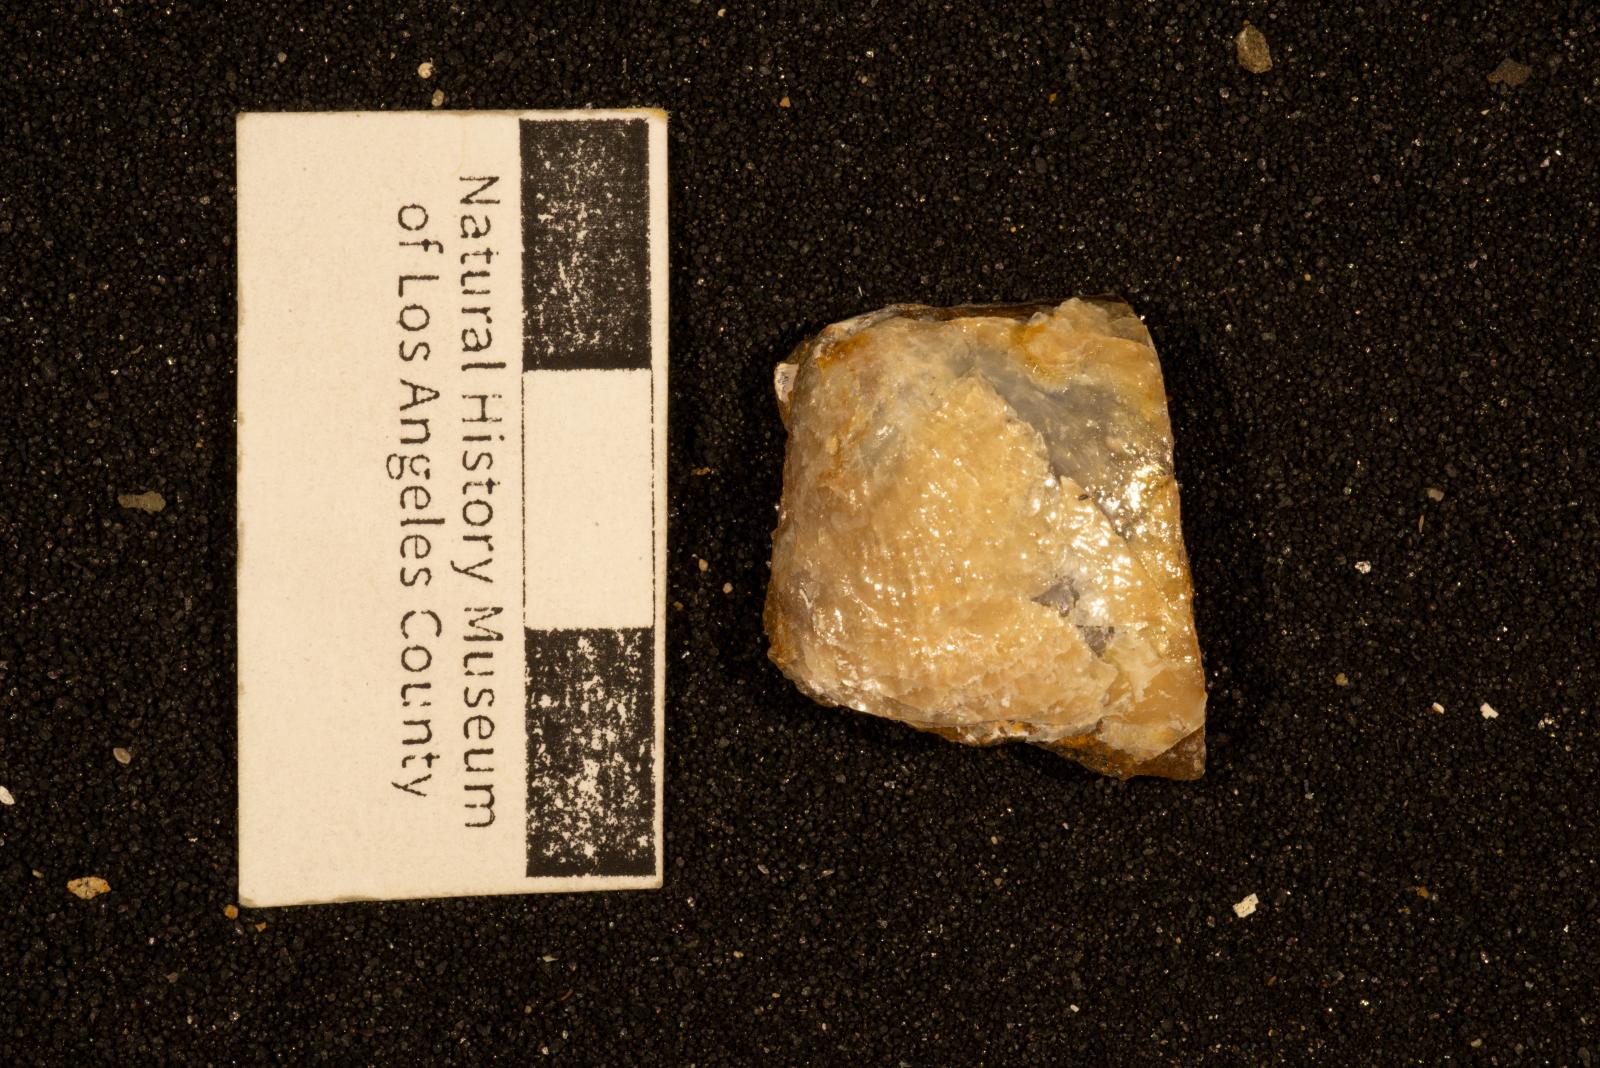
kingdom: Animalia
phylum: Mollusca
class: Bivalvia
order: Pectinida
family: Pectinidae
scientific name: Pectinidae
